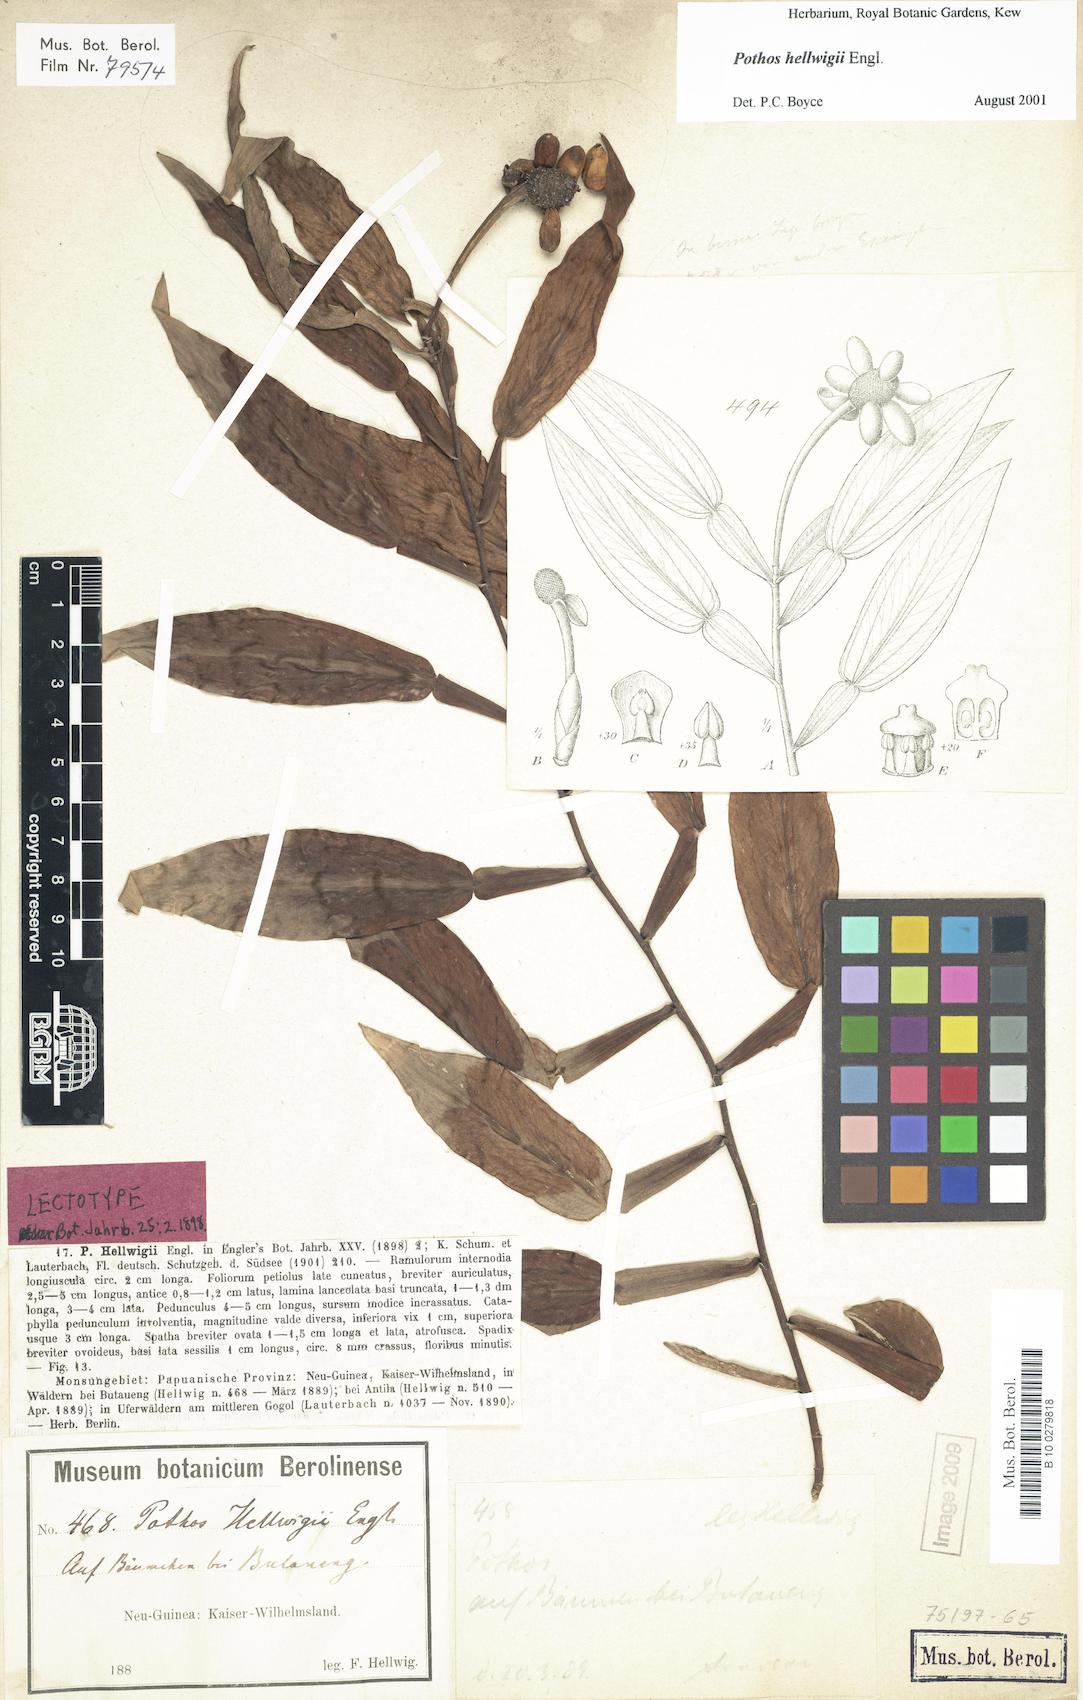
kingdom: Plantae
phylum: Tracheophyta
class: Liliopsida
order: Alismatales
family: Araceae
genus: Pothos
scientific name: Pothos hellwigii
